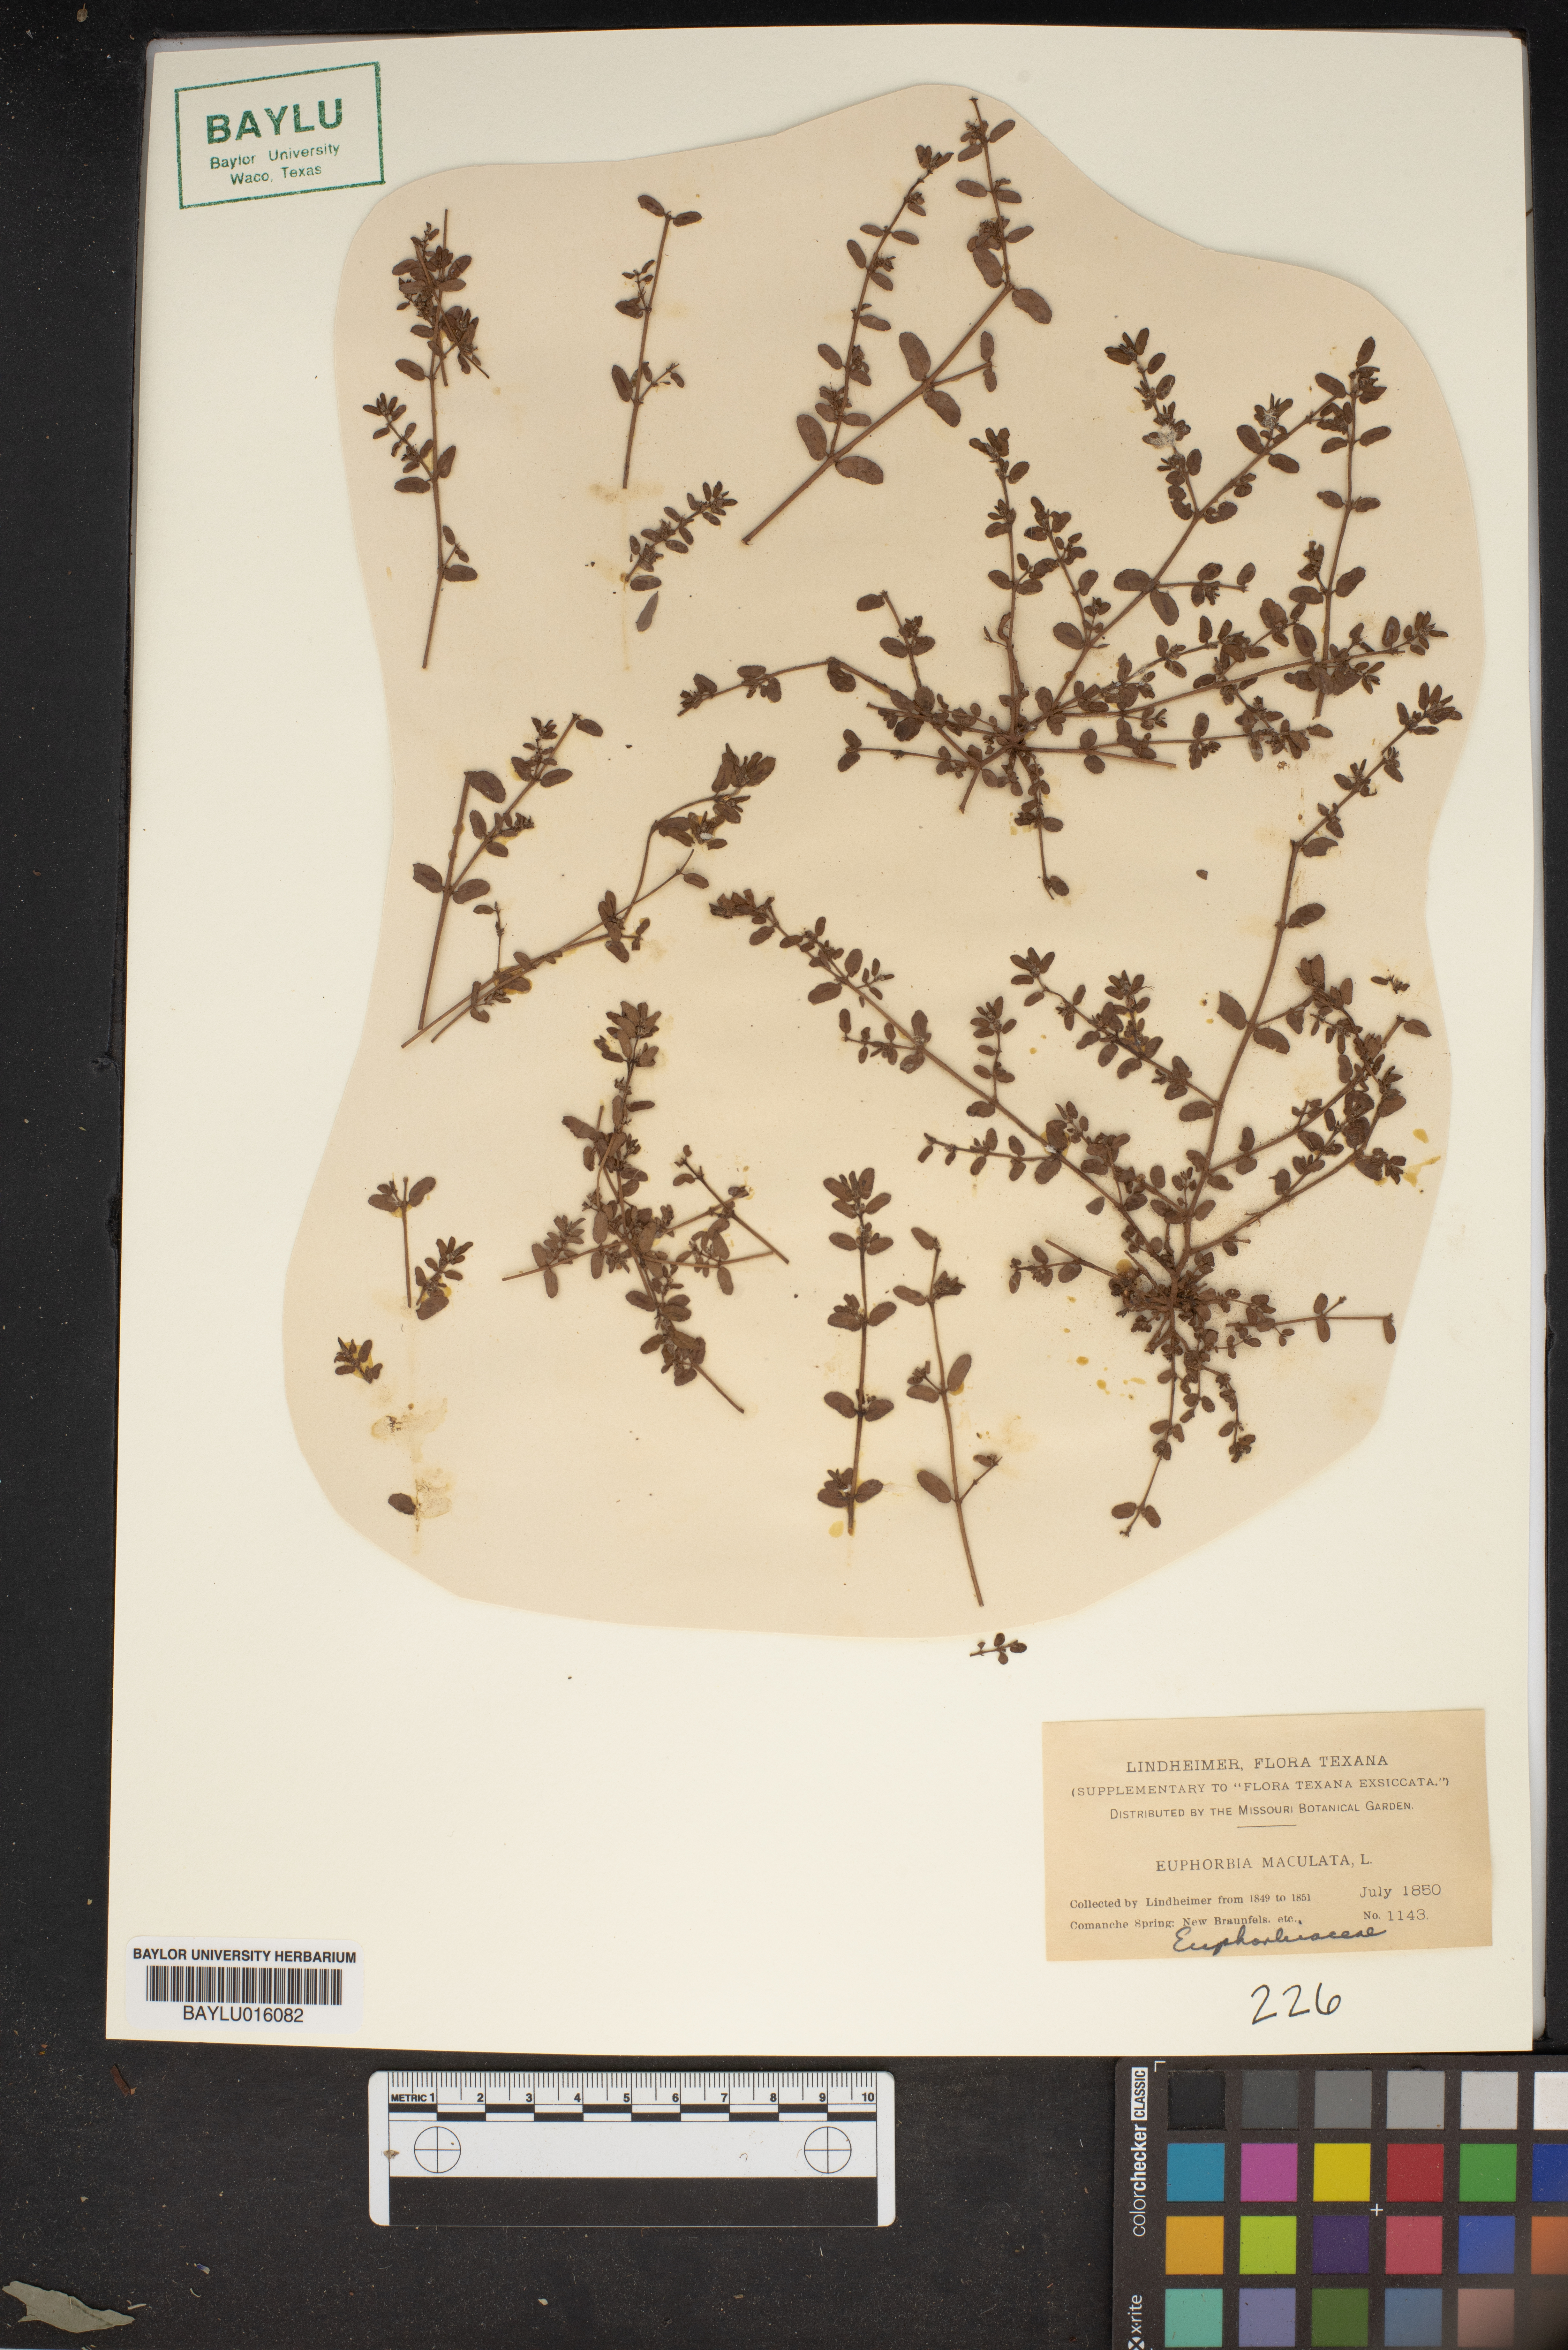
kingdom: Plantae
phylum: Tracheophyta
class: Magnoliopsida
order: Malpighiales
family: Euphorbiaceae
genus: Euphorbia
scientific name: Euphorbia maculata
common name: Spotted spurge
